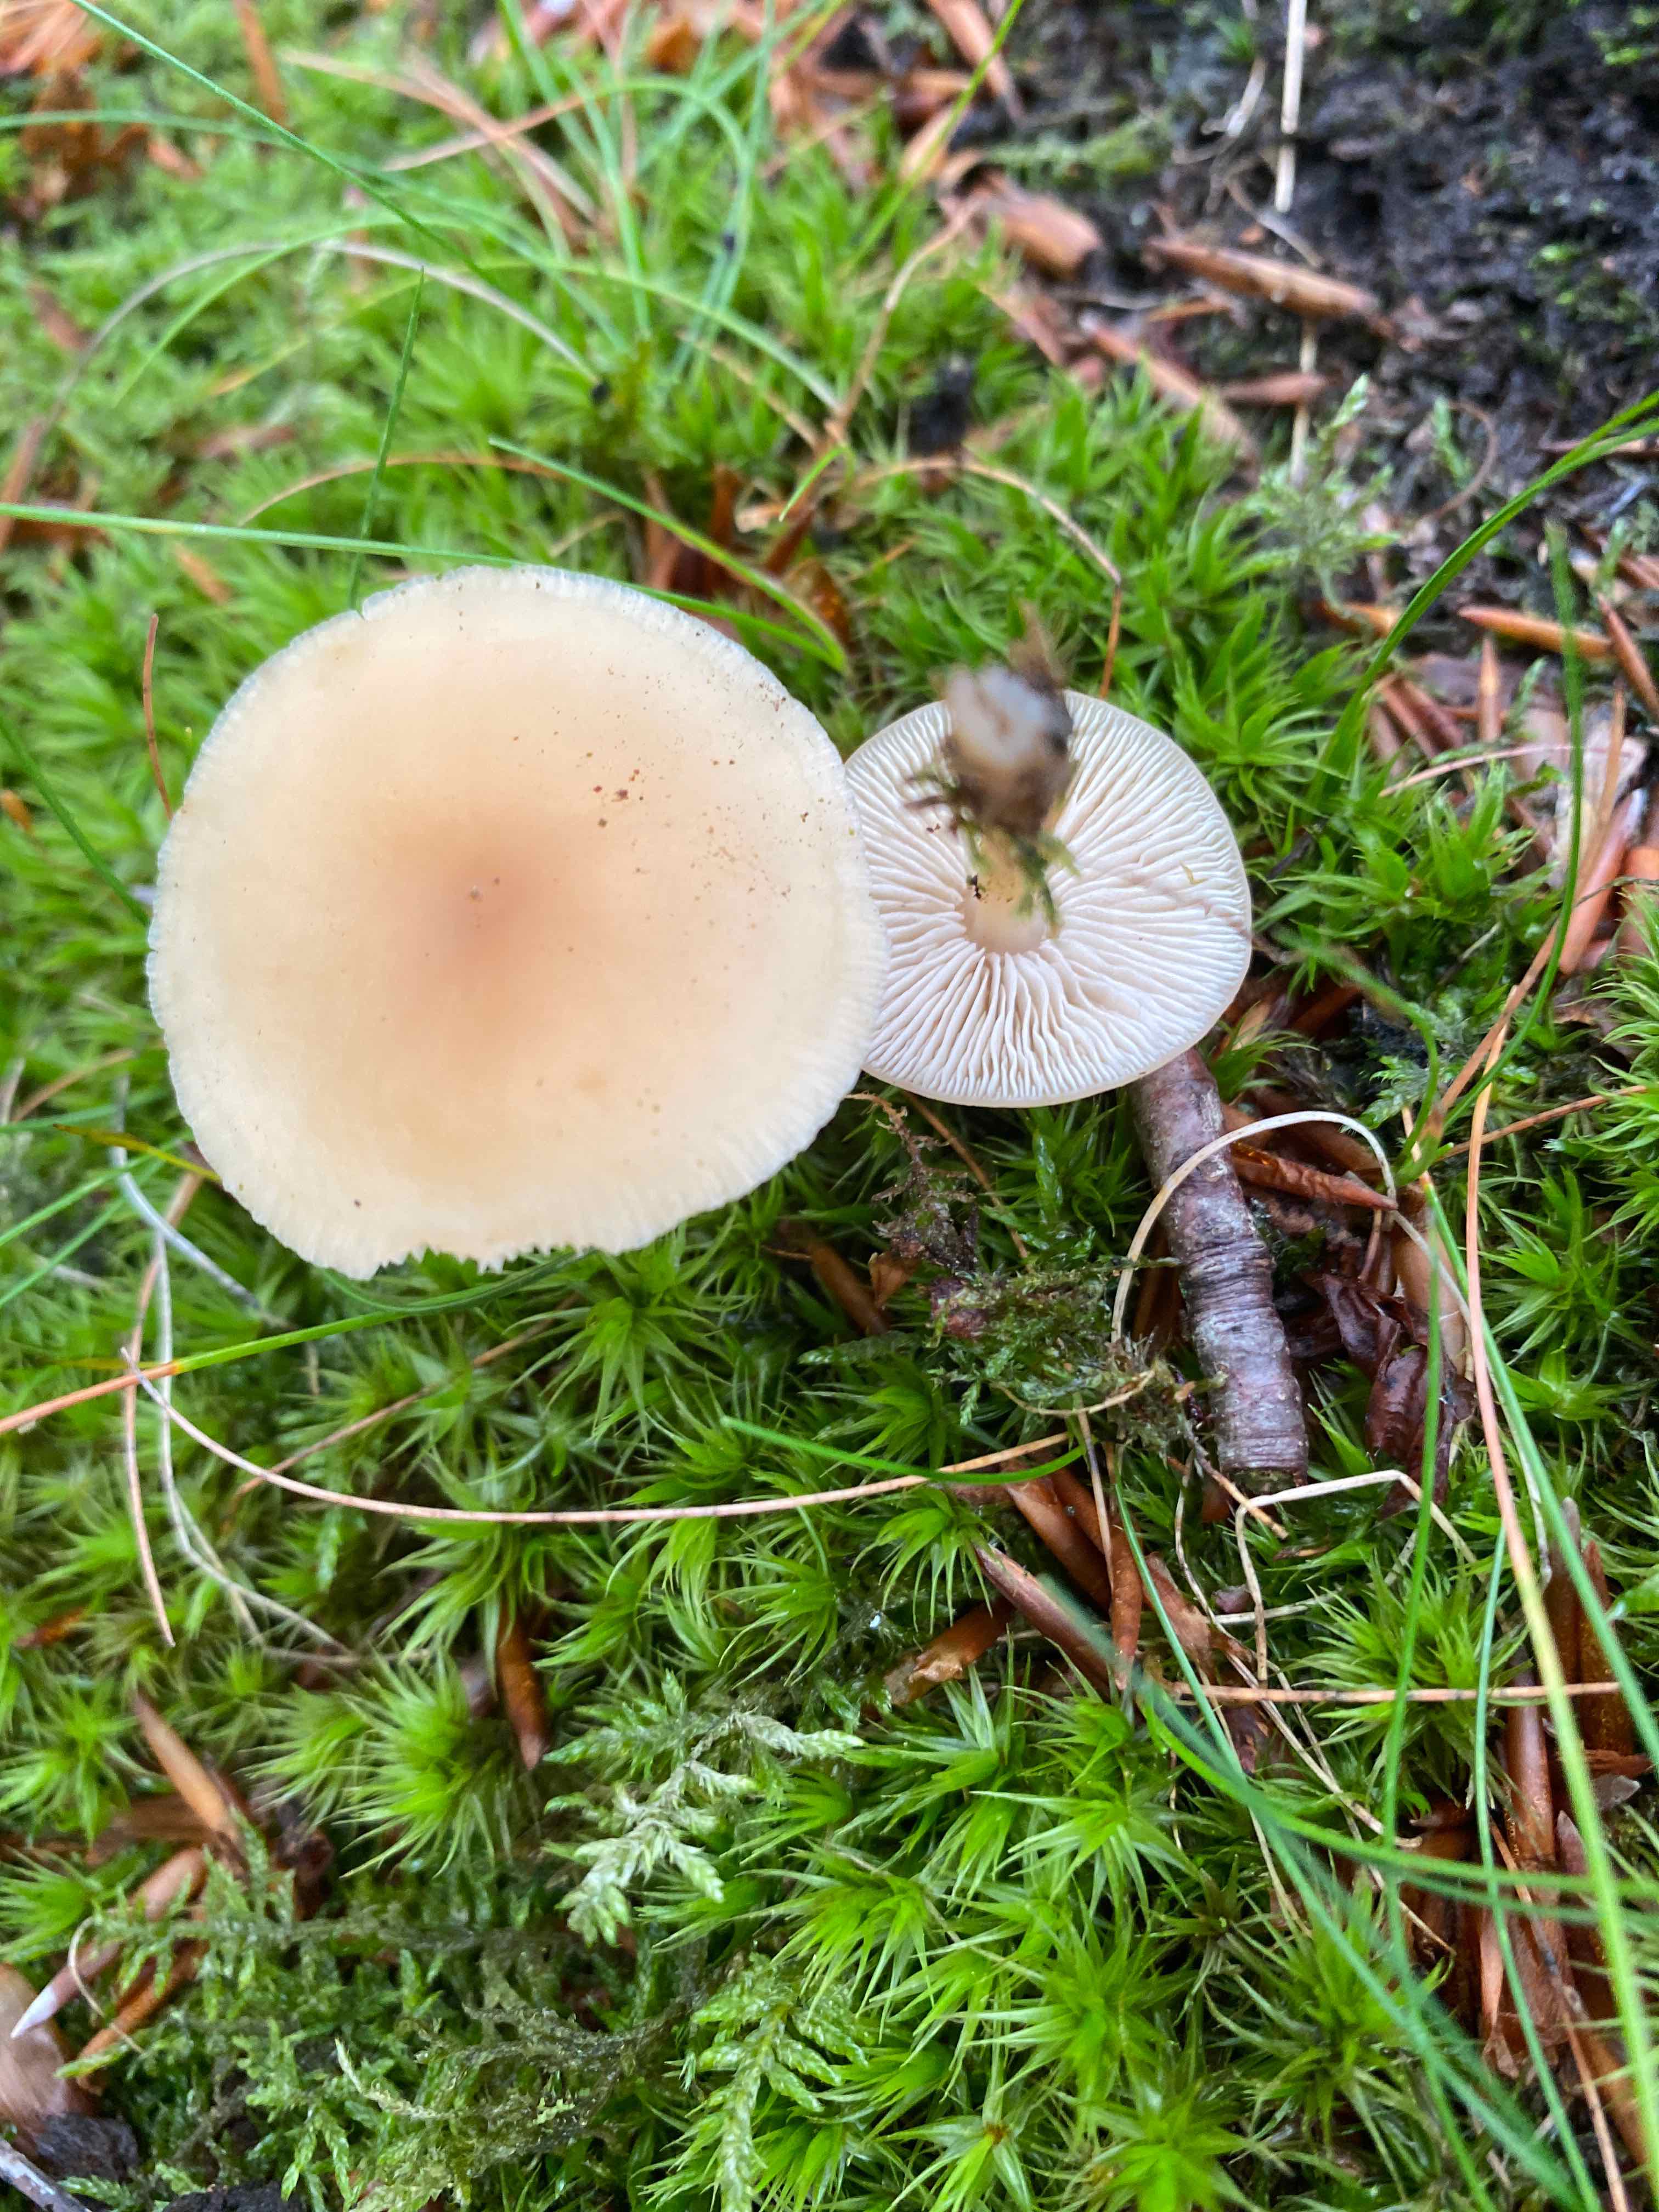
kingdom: Fungi
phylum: Basidiomycota
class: Agaricomycetes
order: Agaricales
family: Omphalotaceae
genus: Gymnopus
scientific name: Gymnopus dryophilus
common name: løv-fladhat
